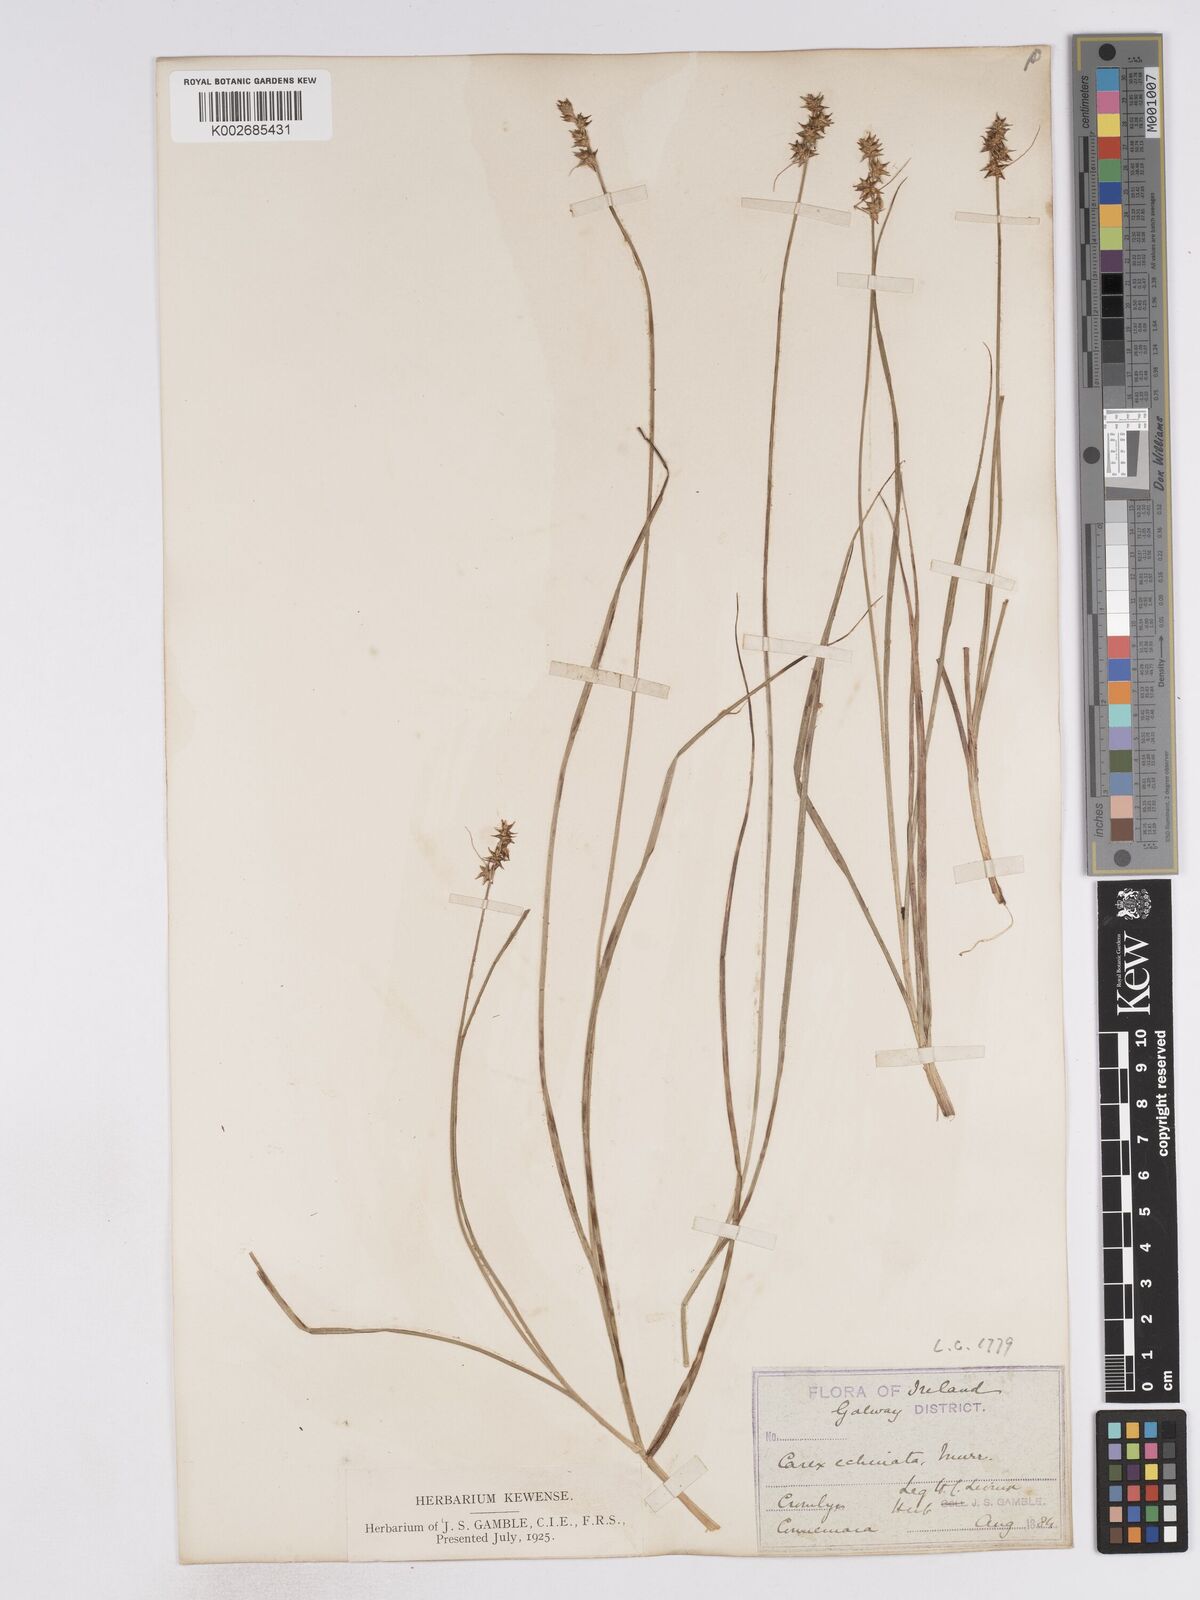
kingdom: Plantae
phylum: Tracheophyta
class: Liliopsida
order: Poales
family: Cyperaceae
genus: Carex
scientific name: Carex echinata
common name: Star sedge
